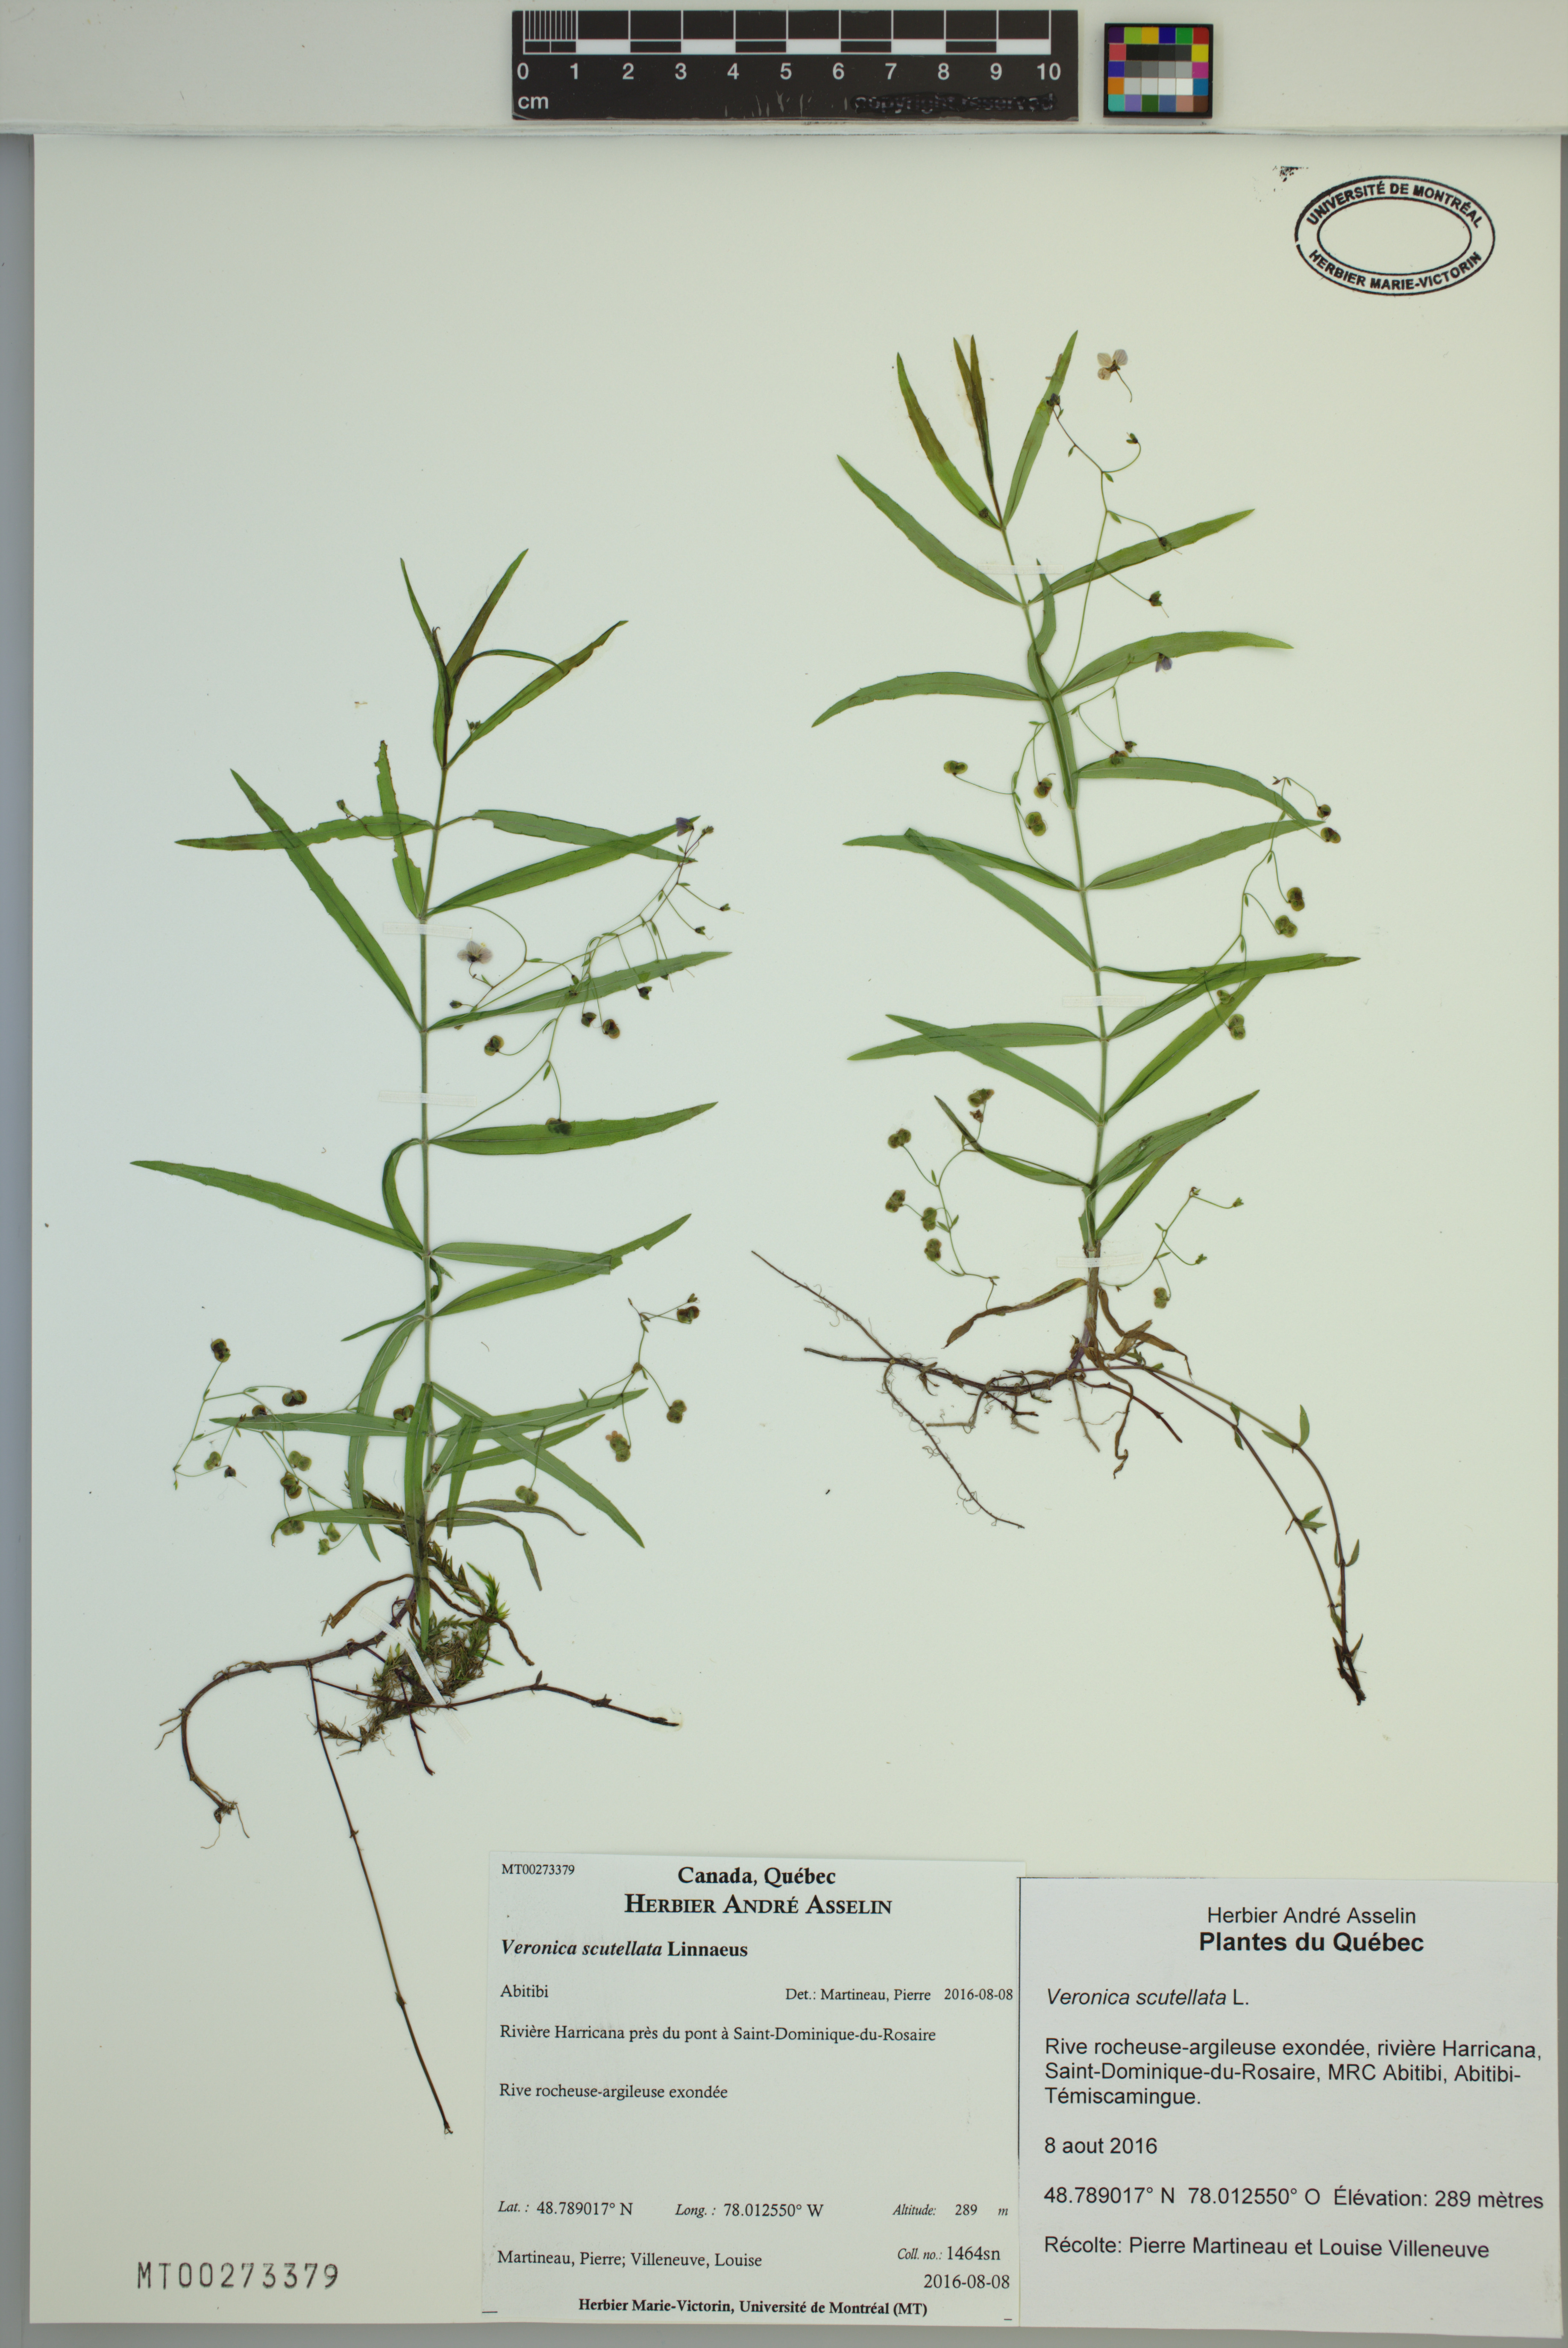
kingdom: Plantae
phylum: Tracheophyta
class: Magnoliopsida
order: Lamiales
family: Plantaginaceae
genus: Veronica
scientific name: Veronica scutellata
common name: Marsh speedwell
